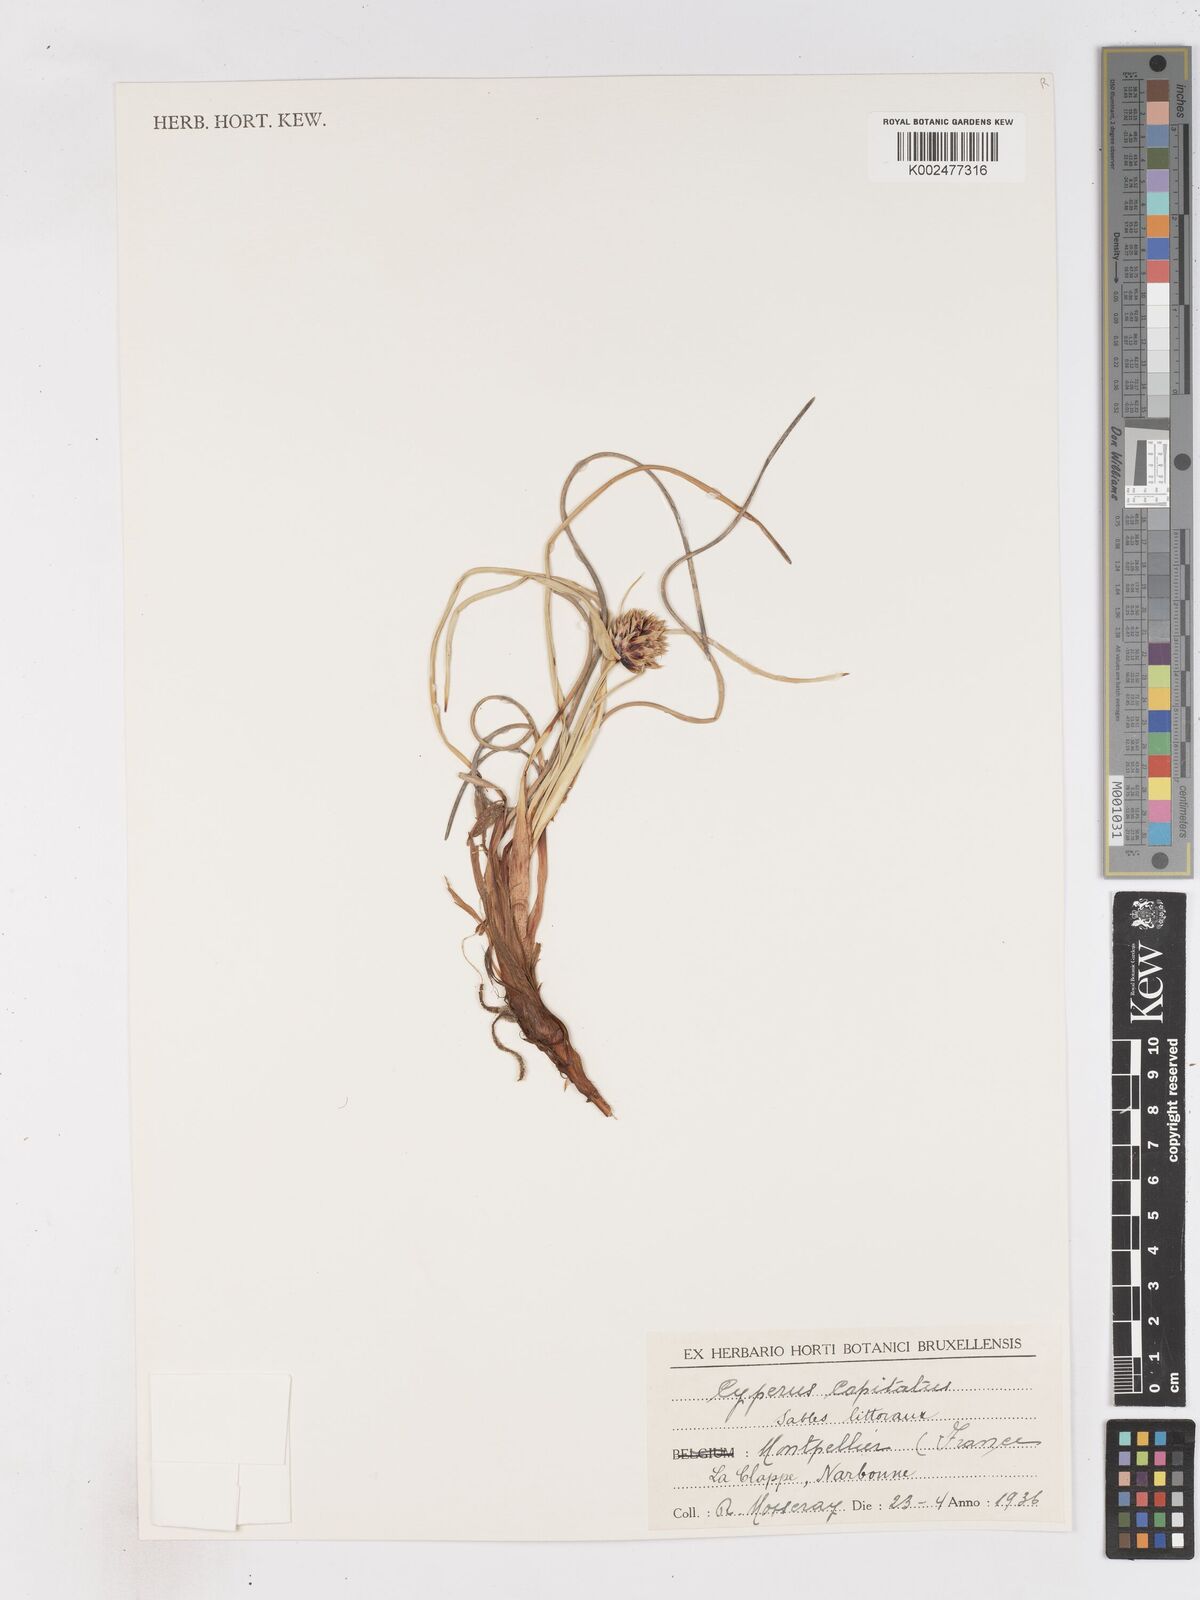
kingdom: Plantae
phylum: Tracheophyta
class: Liliopsida
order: Poales
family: Cyperaceae
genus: Cyperus
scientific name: Cyperus capitatus
